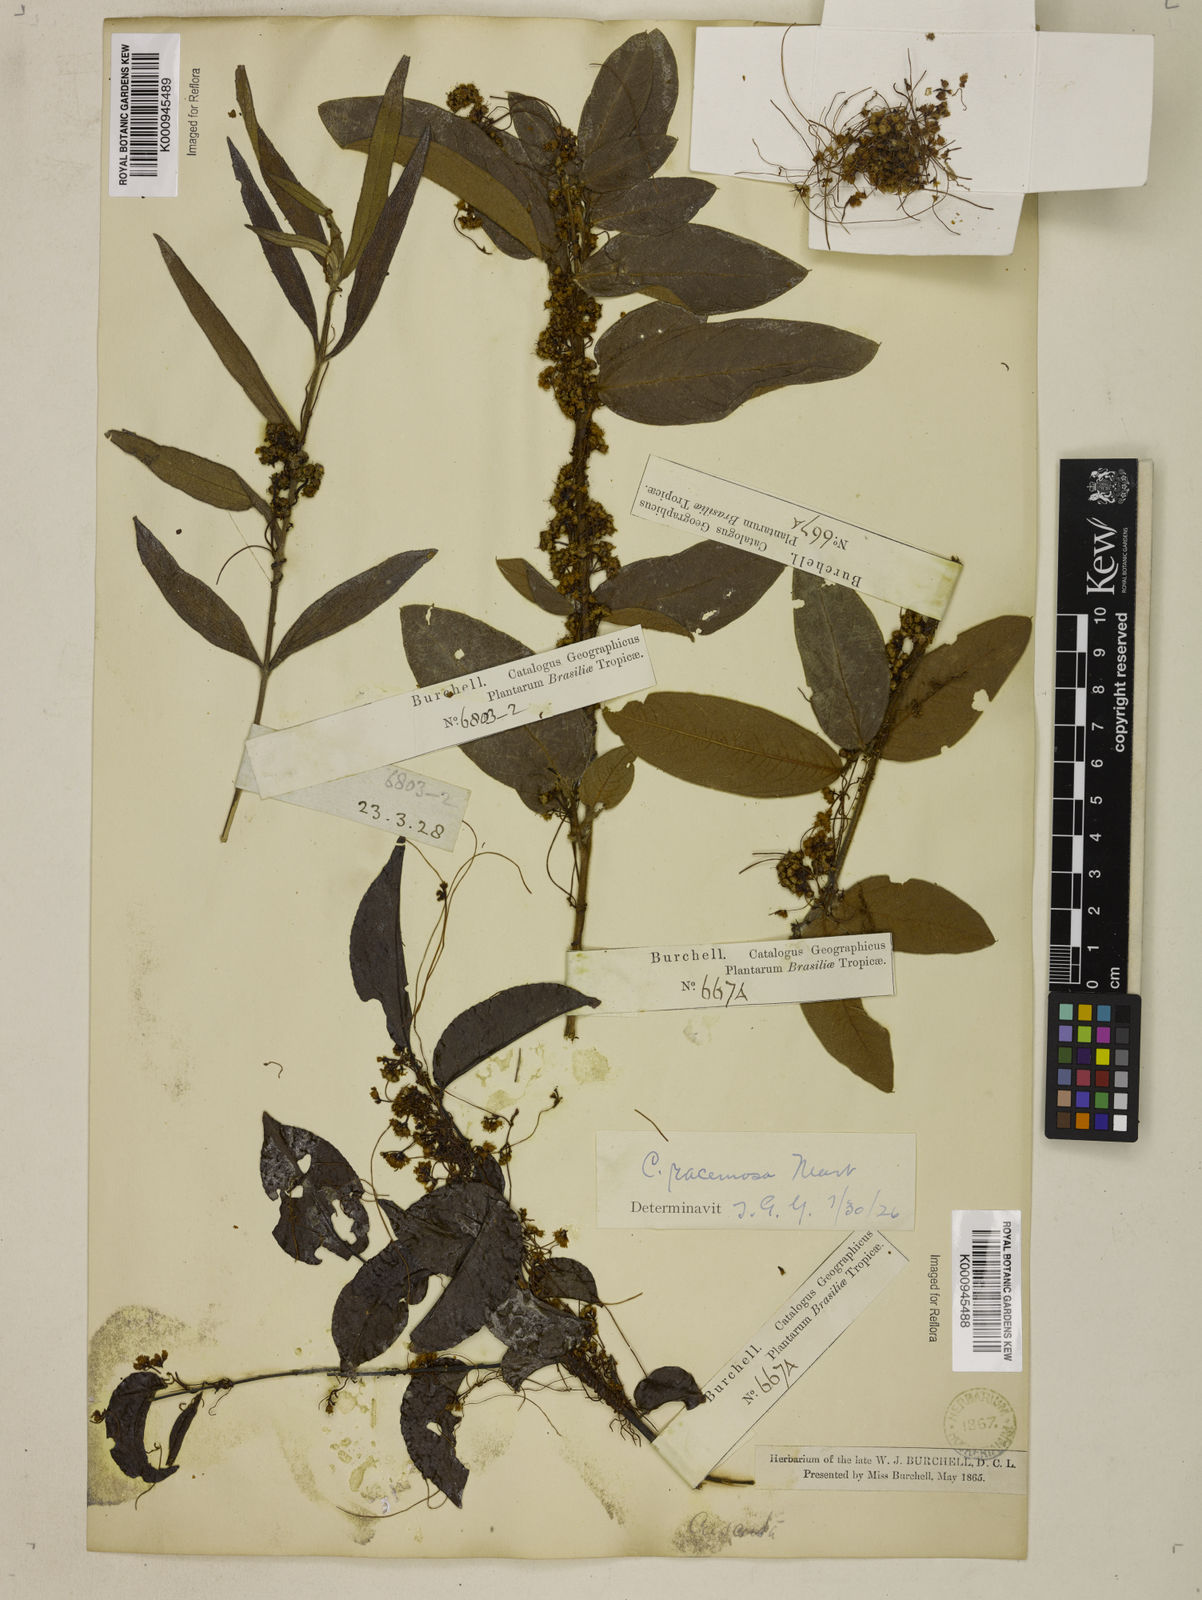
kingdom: Plantae
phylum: Tracheophyta
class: Magnoliopsida
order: Solanales
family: Convolvulaceae
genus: Cuscuta
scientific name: Cuscuta racemosa
